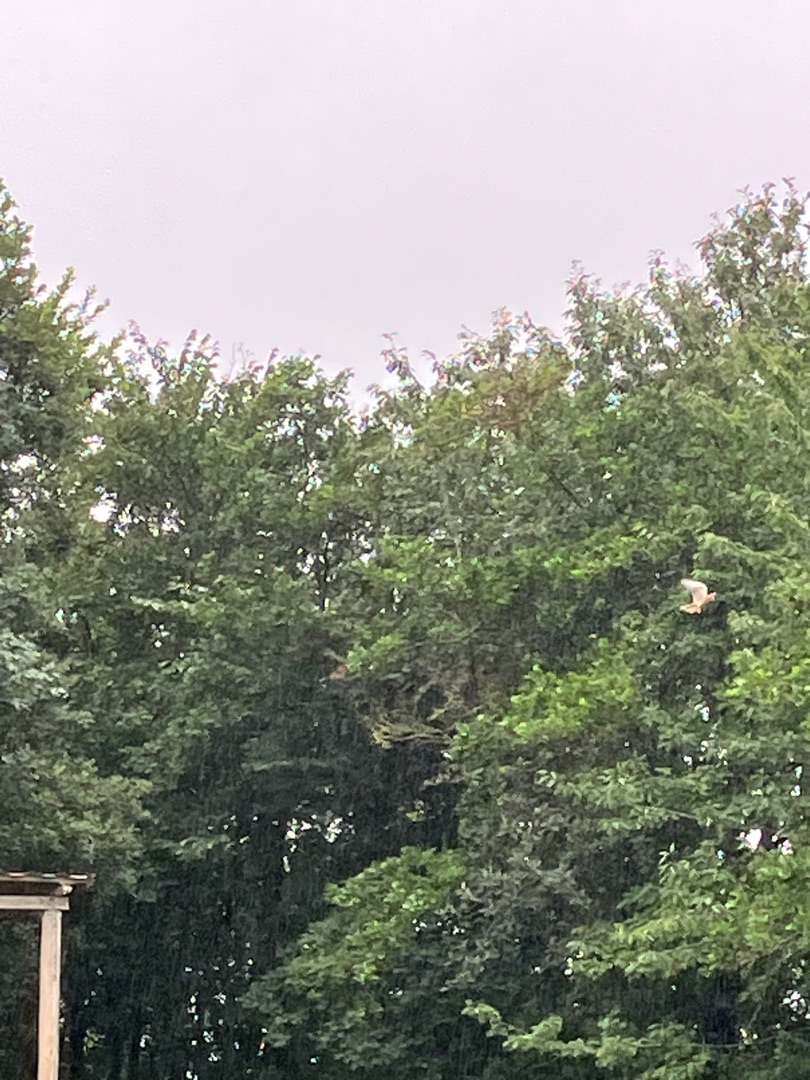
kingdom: Animalia
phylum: Chordata
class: Aves
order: Falconiformes
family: Falconidae
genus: Falco
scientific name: Falco tinnunculus
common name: Tårnfalk
